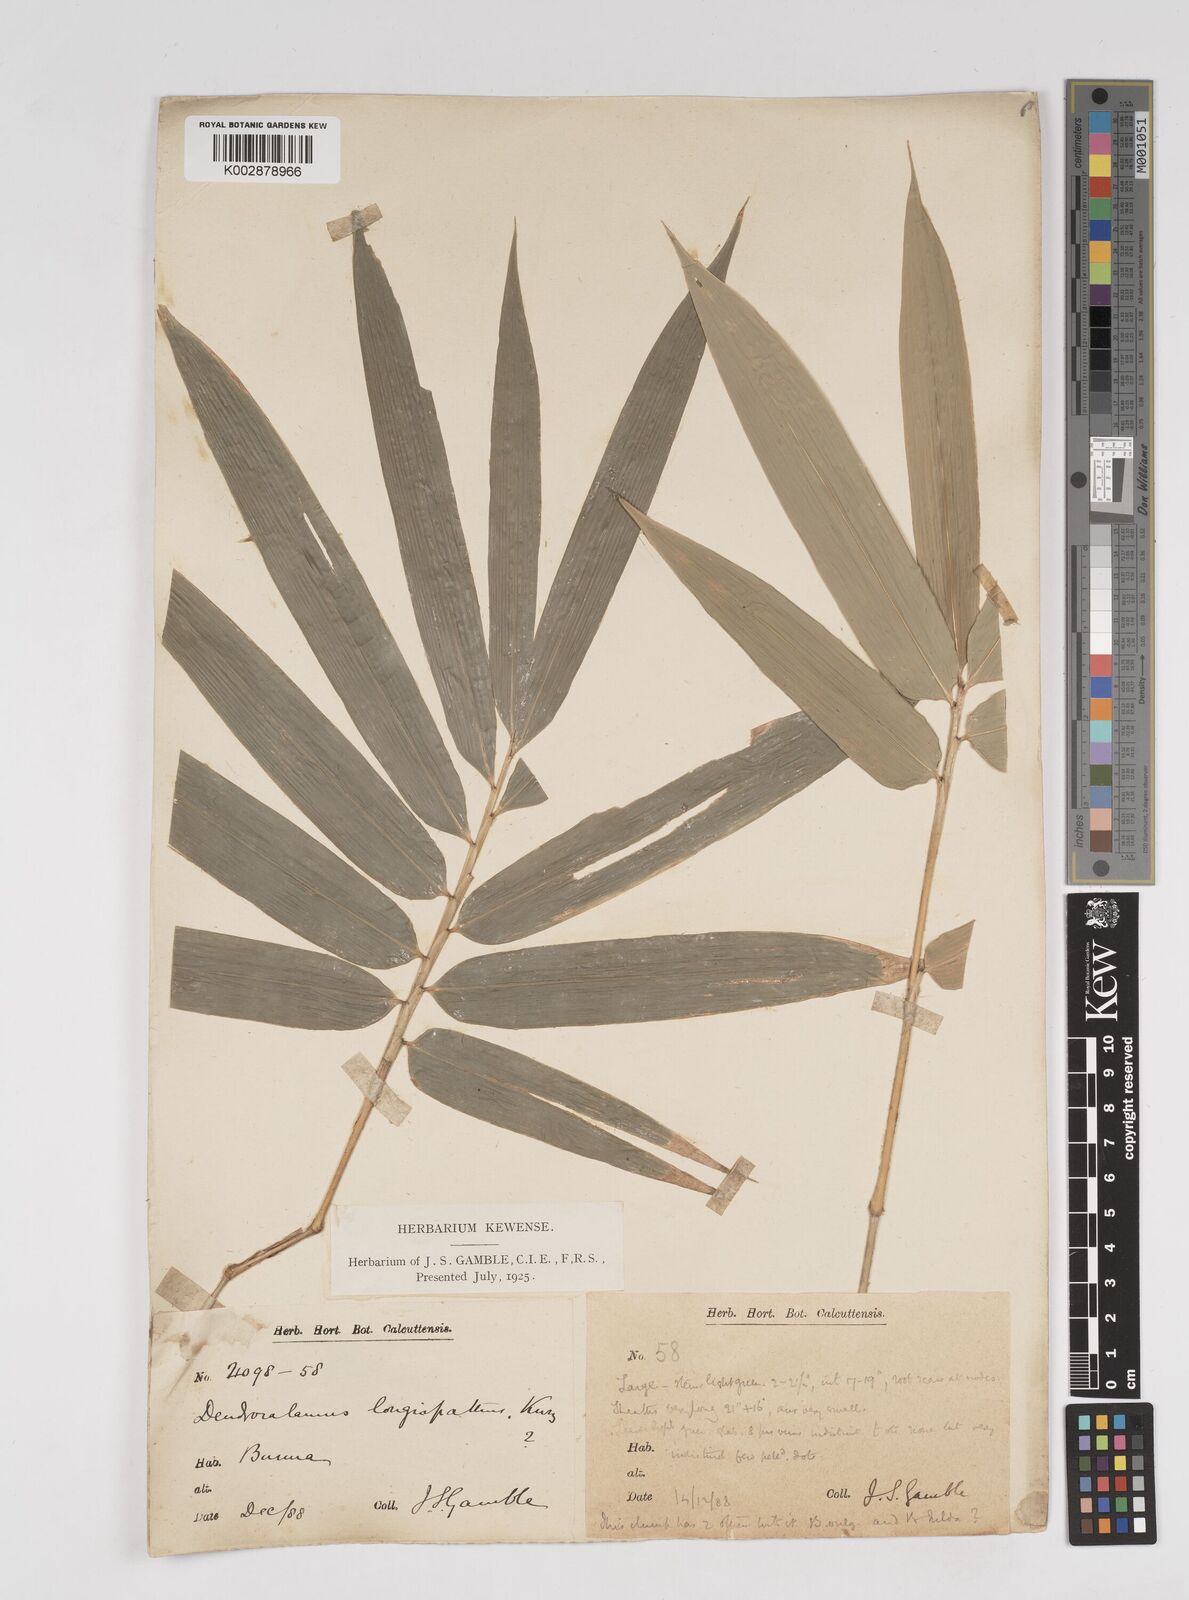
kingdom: Plantae
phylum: Tracheophyta
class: Liliopsida
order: Poales
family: Poaceae
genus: Dendrocalamus
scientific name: Dendrocalamus longispathus
